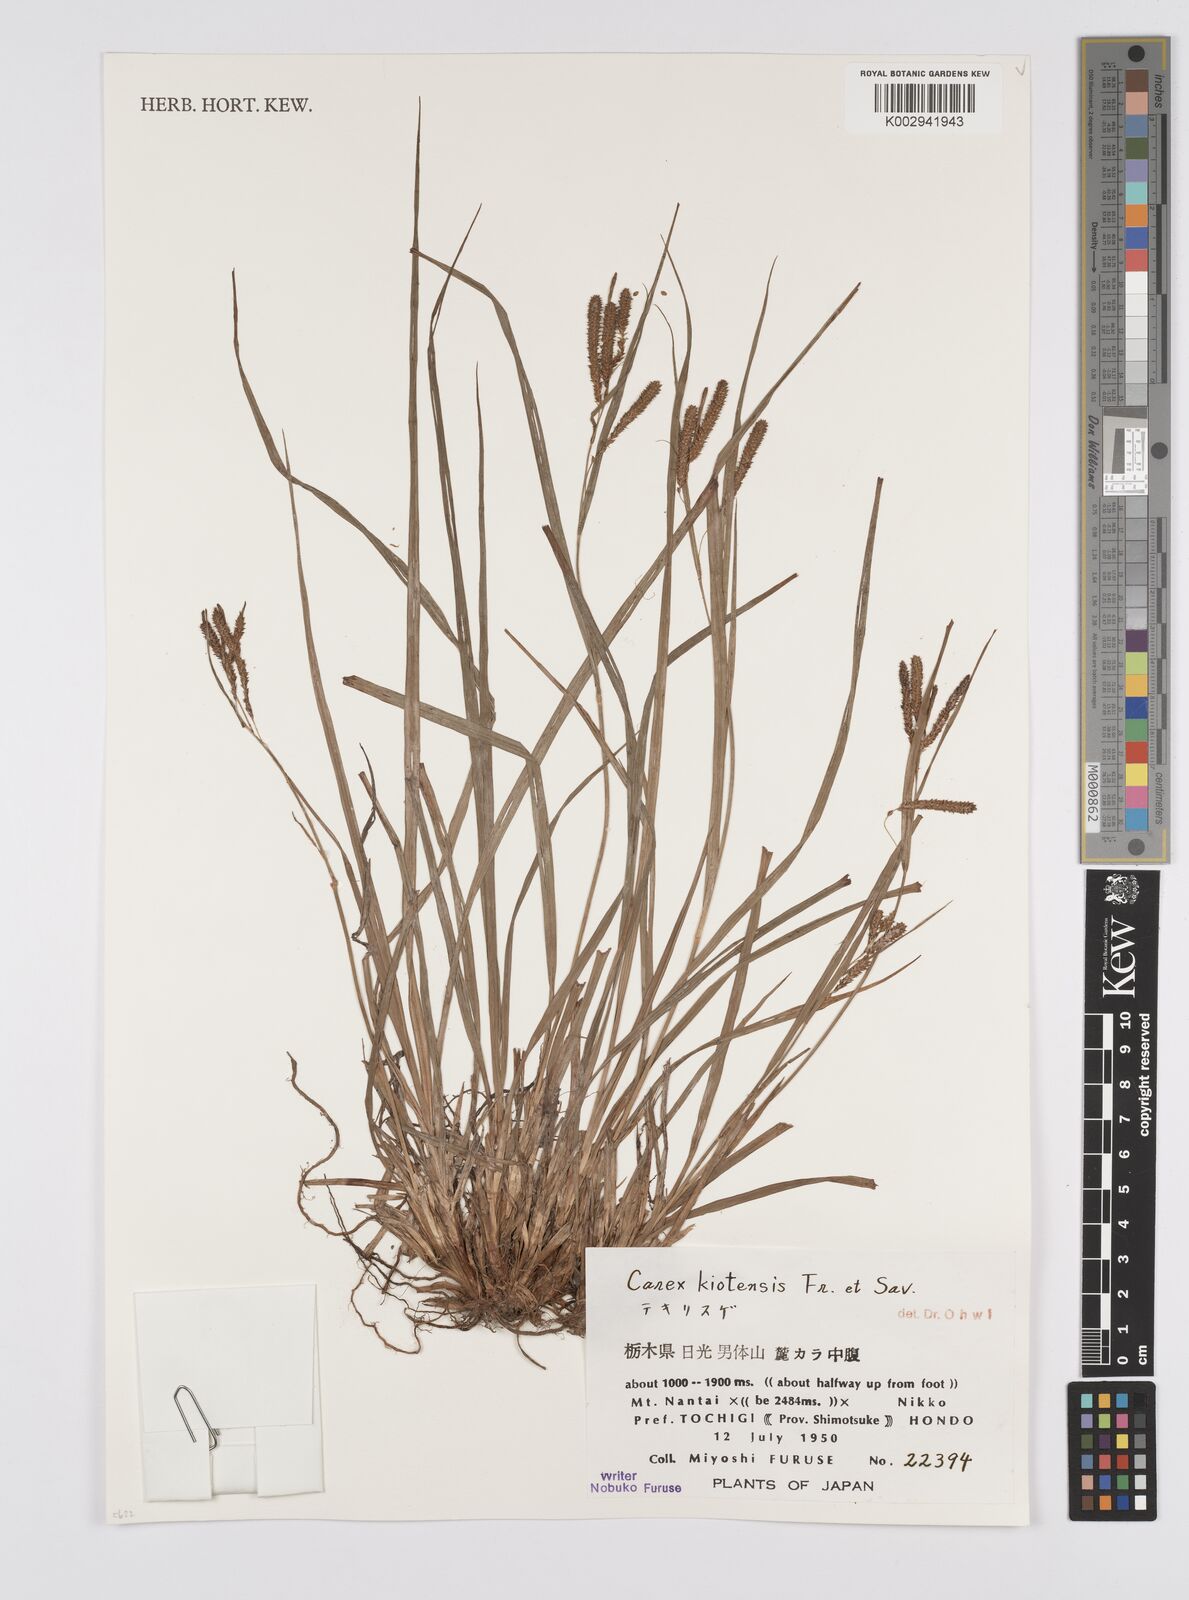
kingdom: Plantae
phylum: Tracheophyta
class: Liliopsida
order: Poales
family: Cyperaceae
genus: Carex
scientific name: Carex nemostachys
